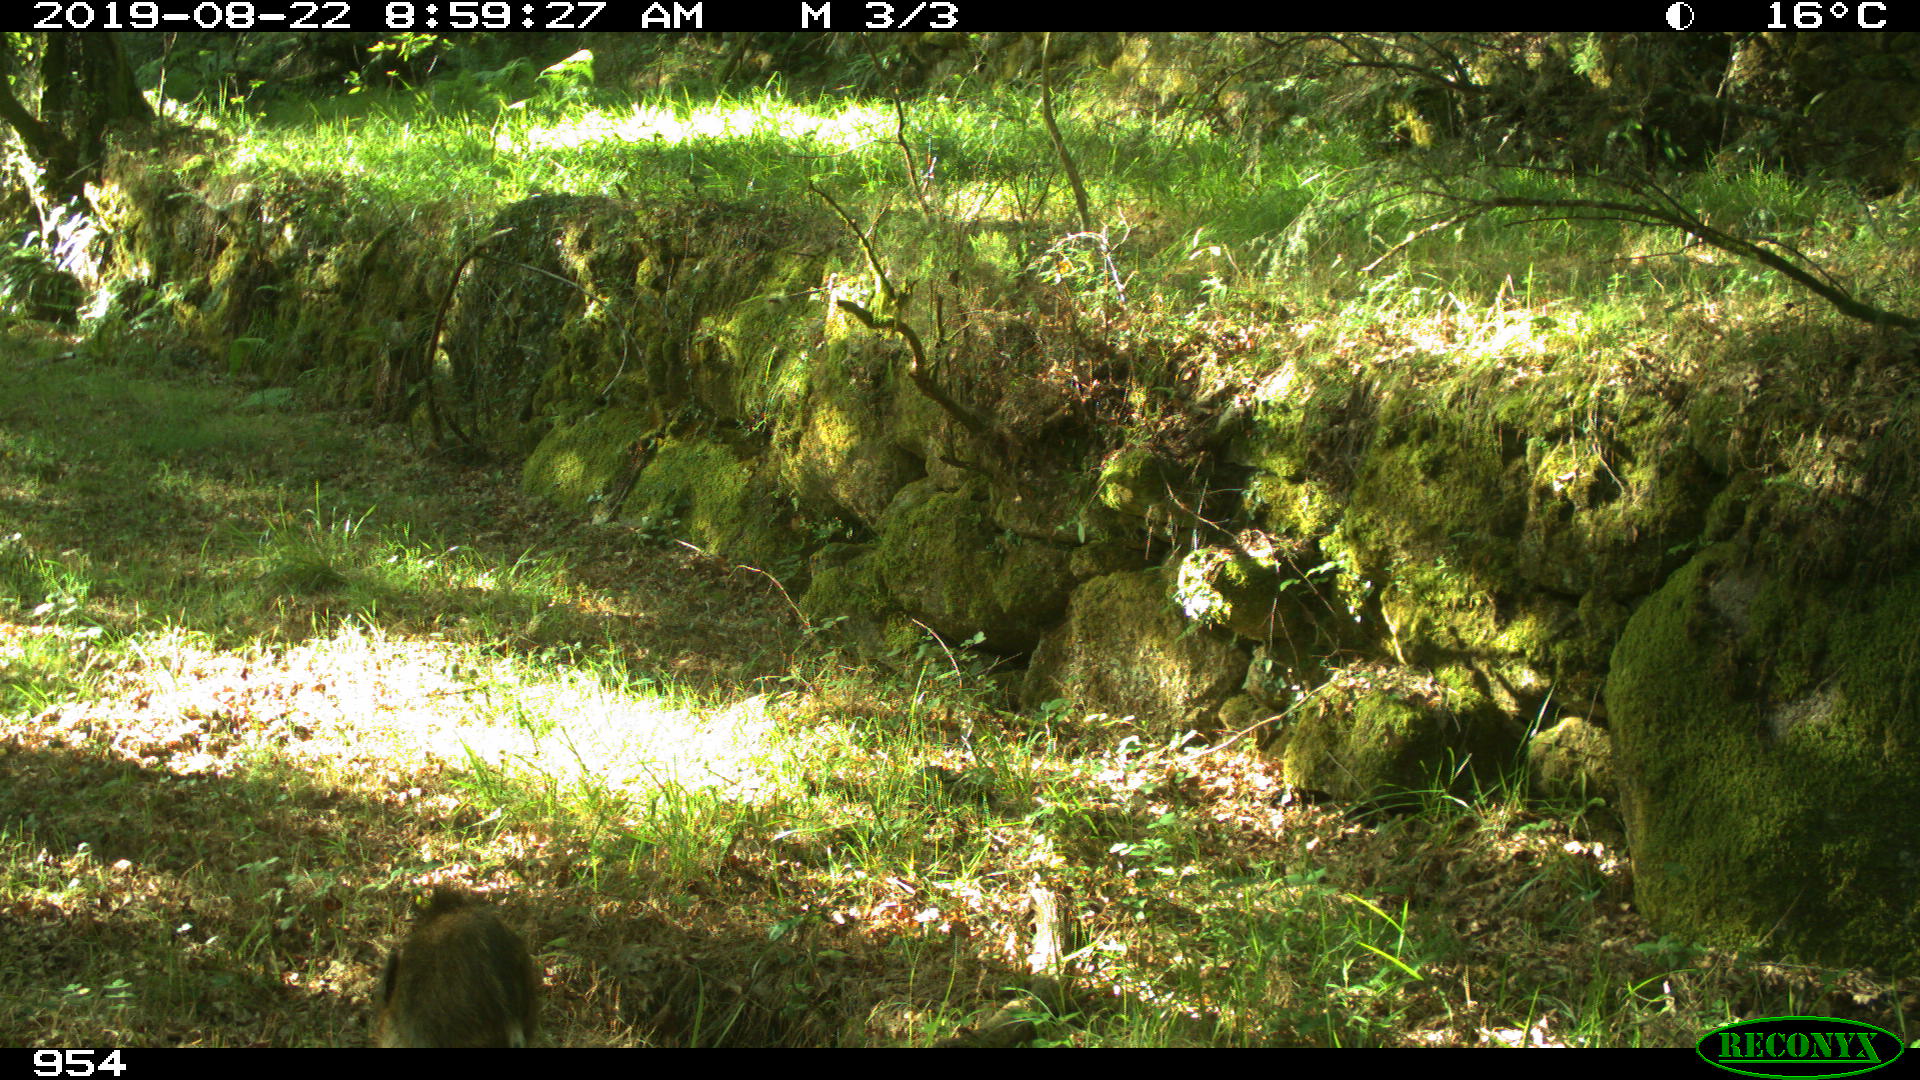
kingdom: Animalia
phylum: Chordata
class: Mammalia
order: Artiodactyla
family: Suidae
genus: Sus
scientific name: Sus scrofa
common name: Wild boar
